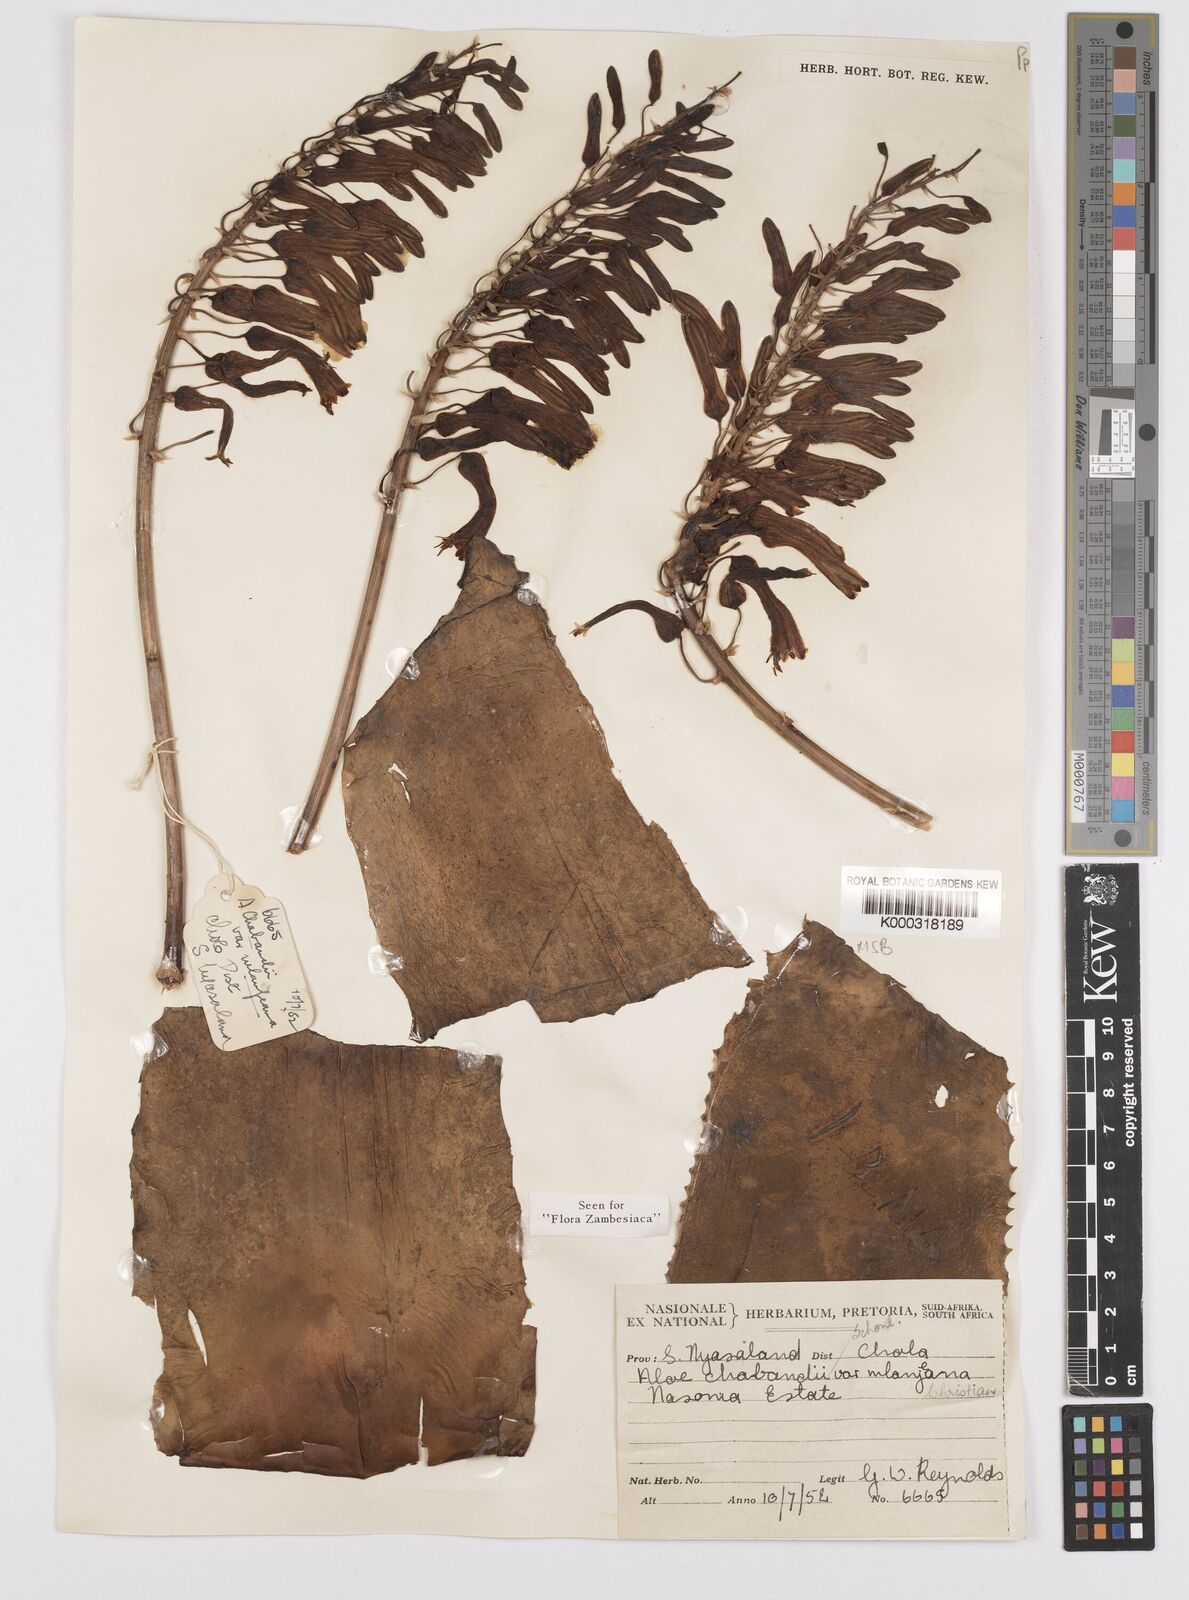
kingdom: Plantae
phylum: Tracheophyta
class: Liliopsida
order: Asparagales
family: Asphodelaceae
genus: Aloe
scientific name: Aloe chabaudii
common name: Chabaud's aloe
